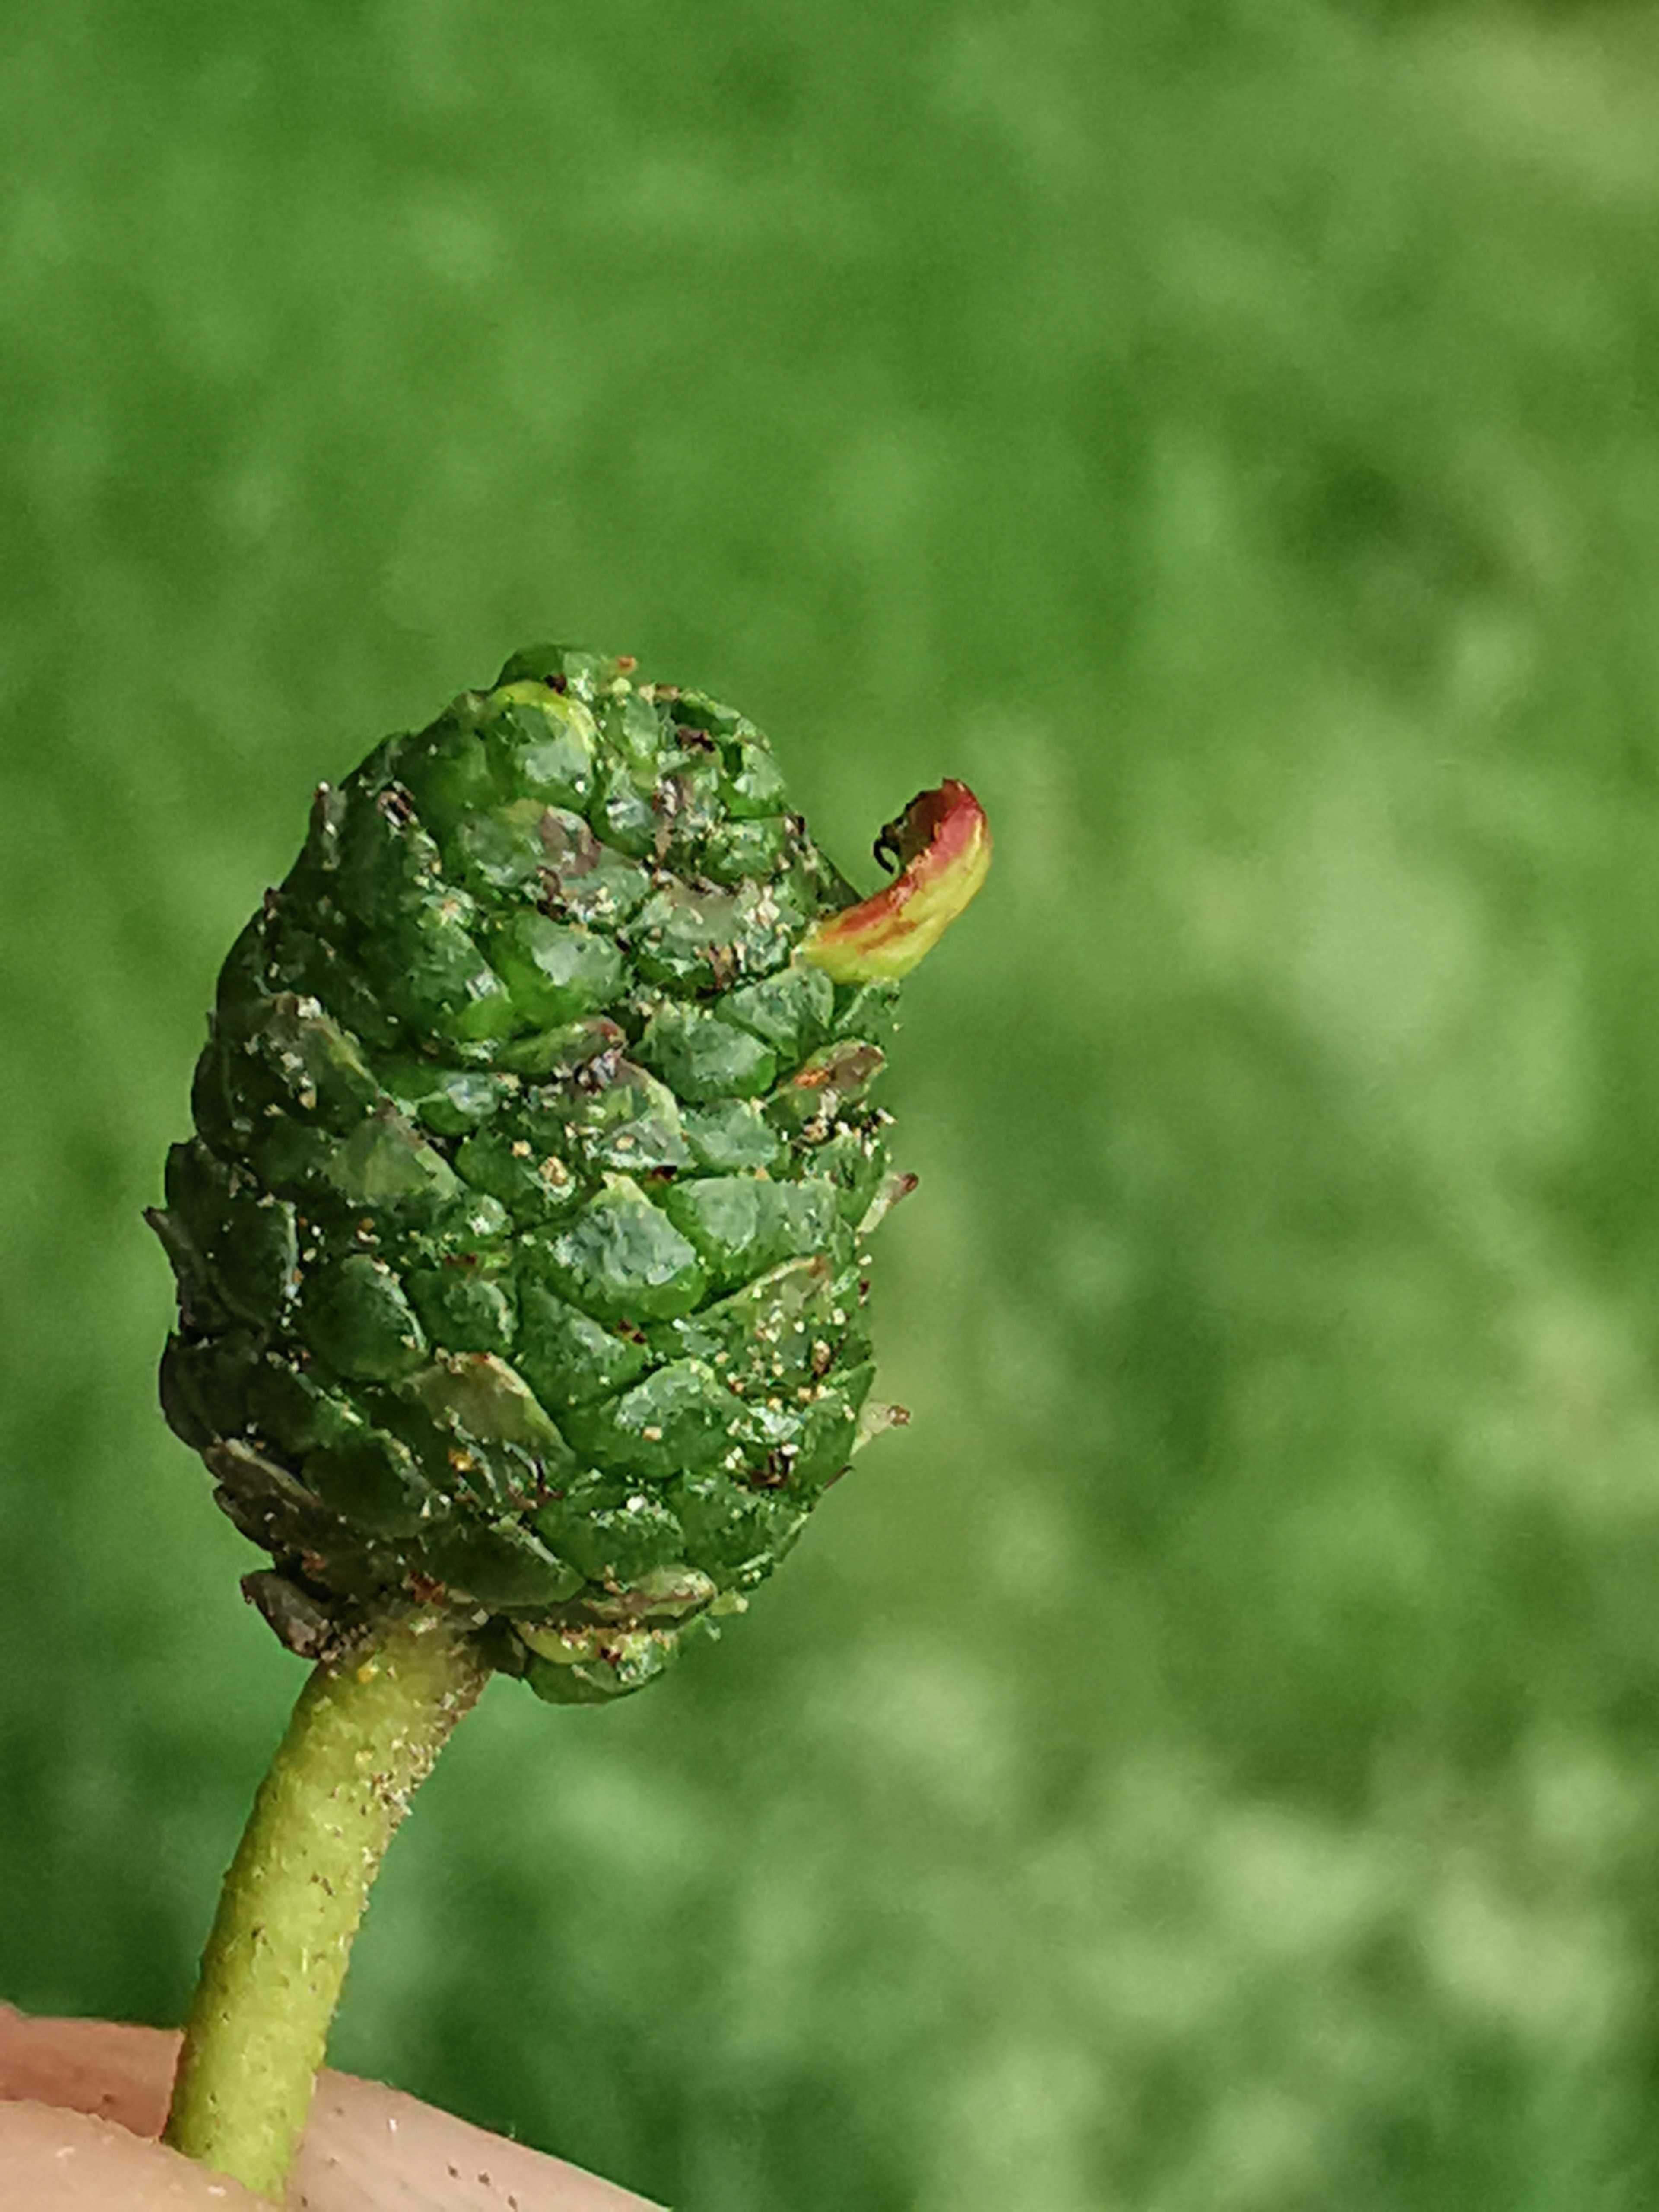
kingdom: Fungi
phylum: Ascomycota
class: Taphrinomycetes
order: Taphrinales
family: Taphrinaceae
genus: Taphrina
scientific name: Taphrina alni
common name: Alder tongue
